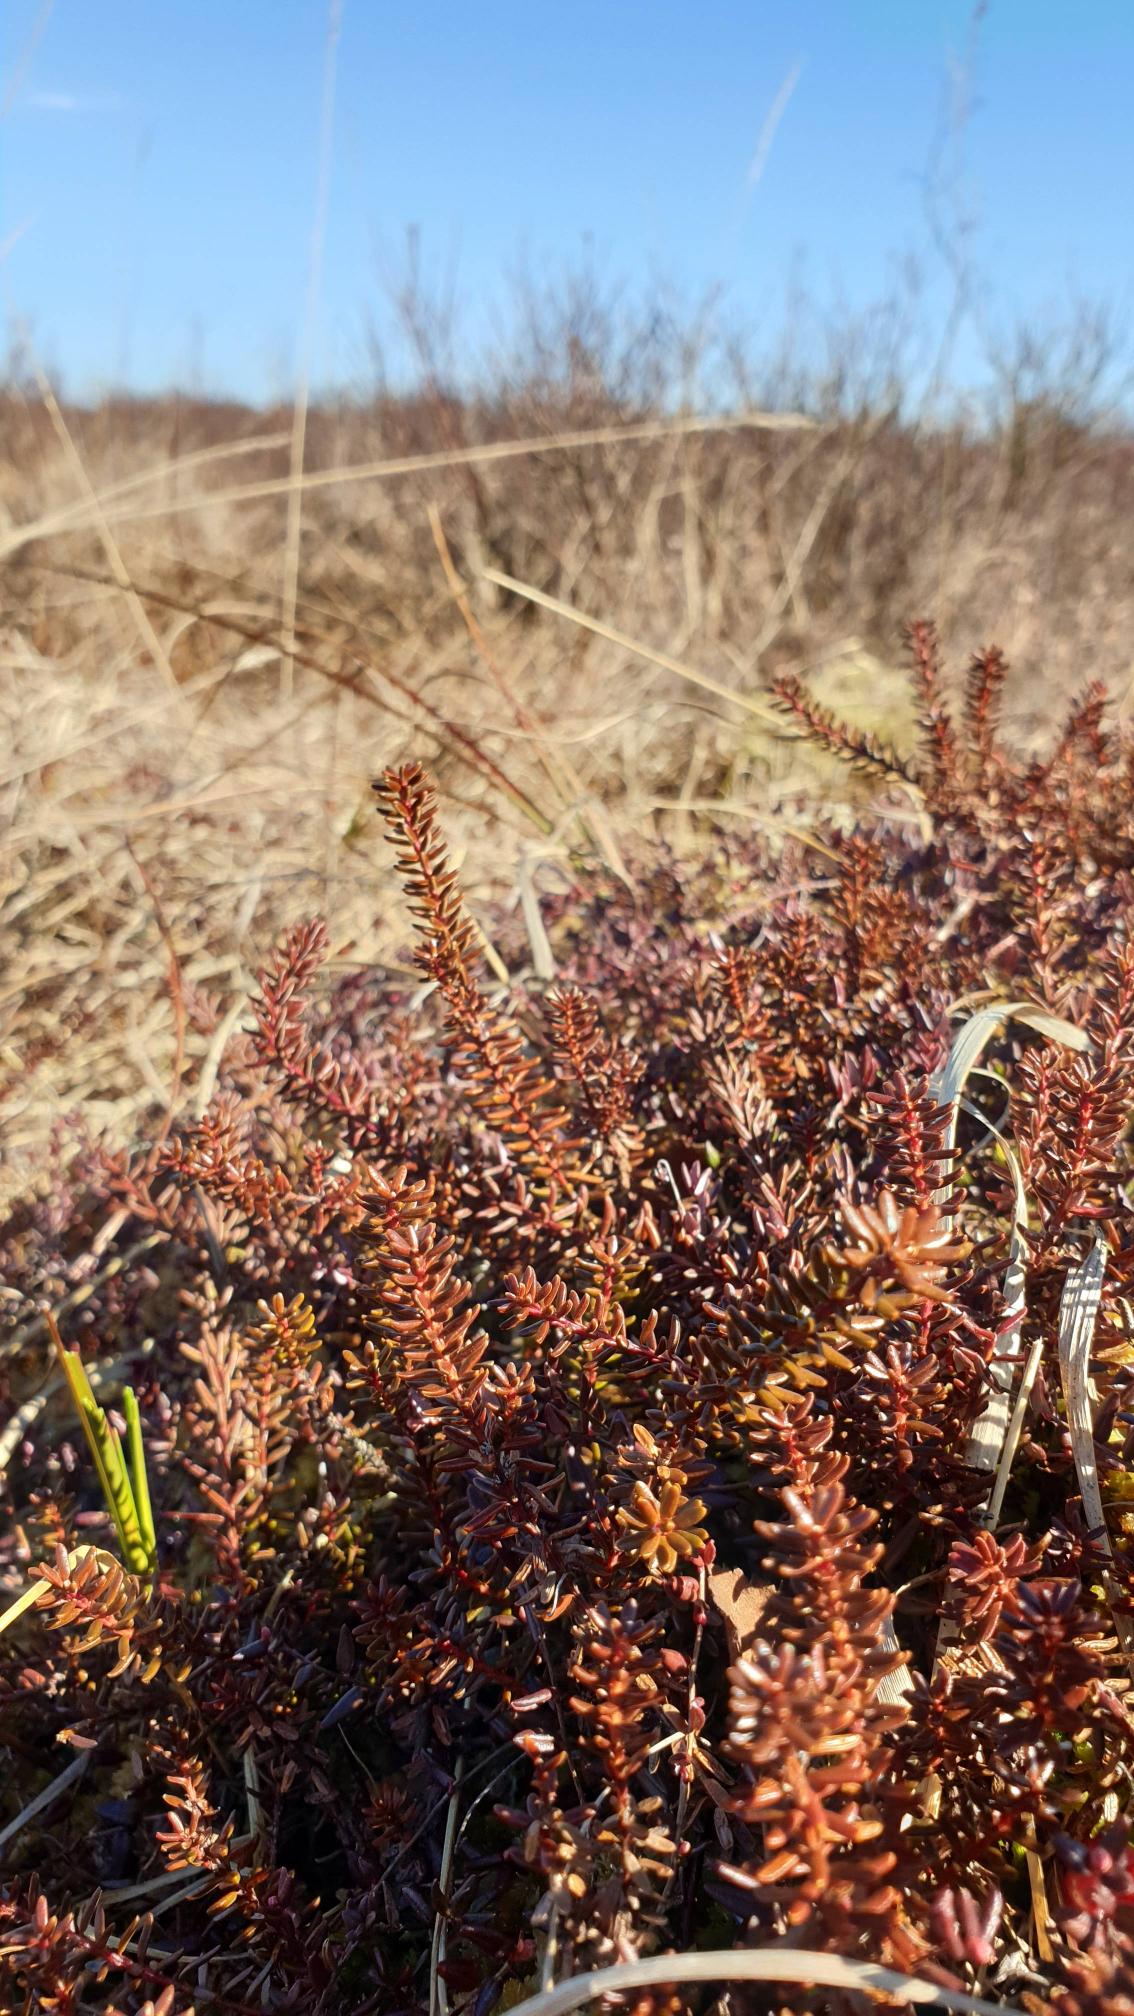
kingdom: Plantae
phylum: Tracheophyta
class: Magnoliopsida
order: Ericales
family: Ericaceae
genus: Empetrum
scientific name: Empetrum nigrum
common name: Revling
